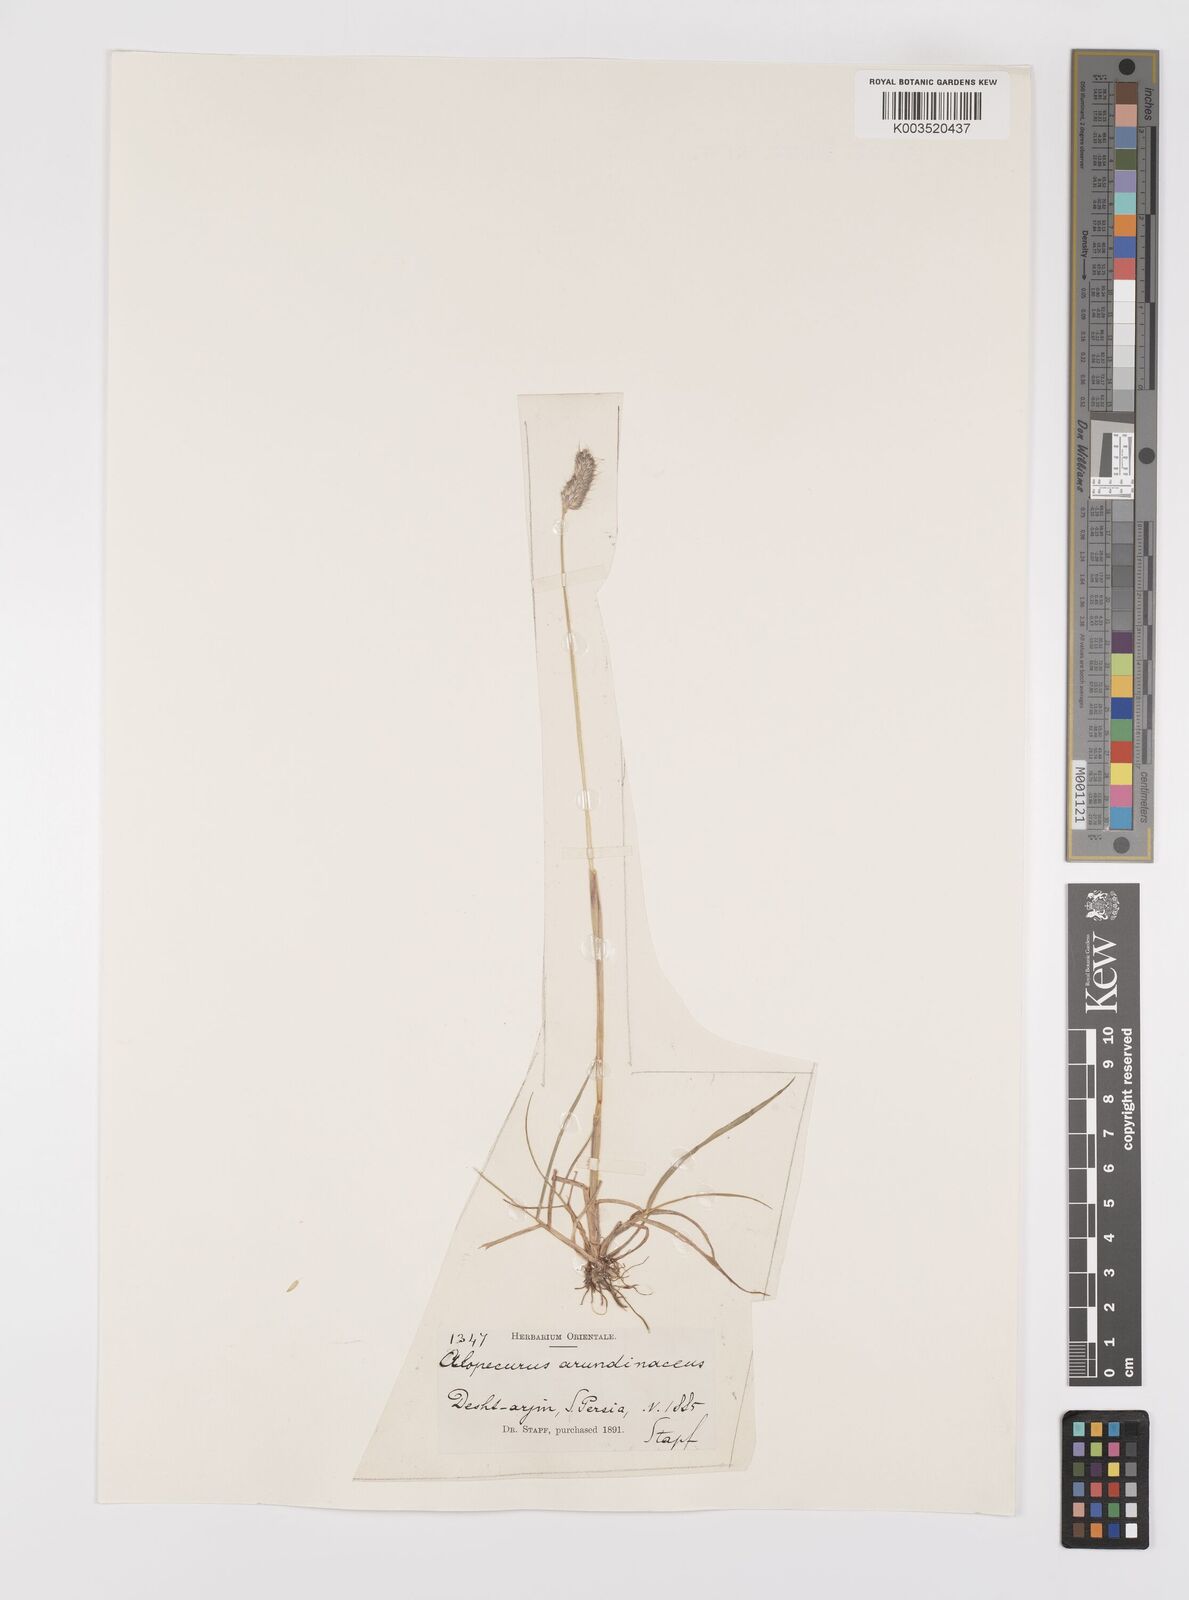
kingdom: Plantae
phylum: Tracheophyta
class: Liliopsida
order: Poales
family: Poaceae
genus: Alopecurus
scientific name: Alopecurus arundinaceus
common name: Creeping meadow foxtail
